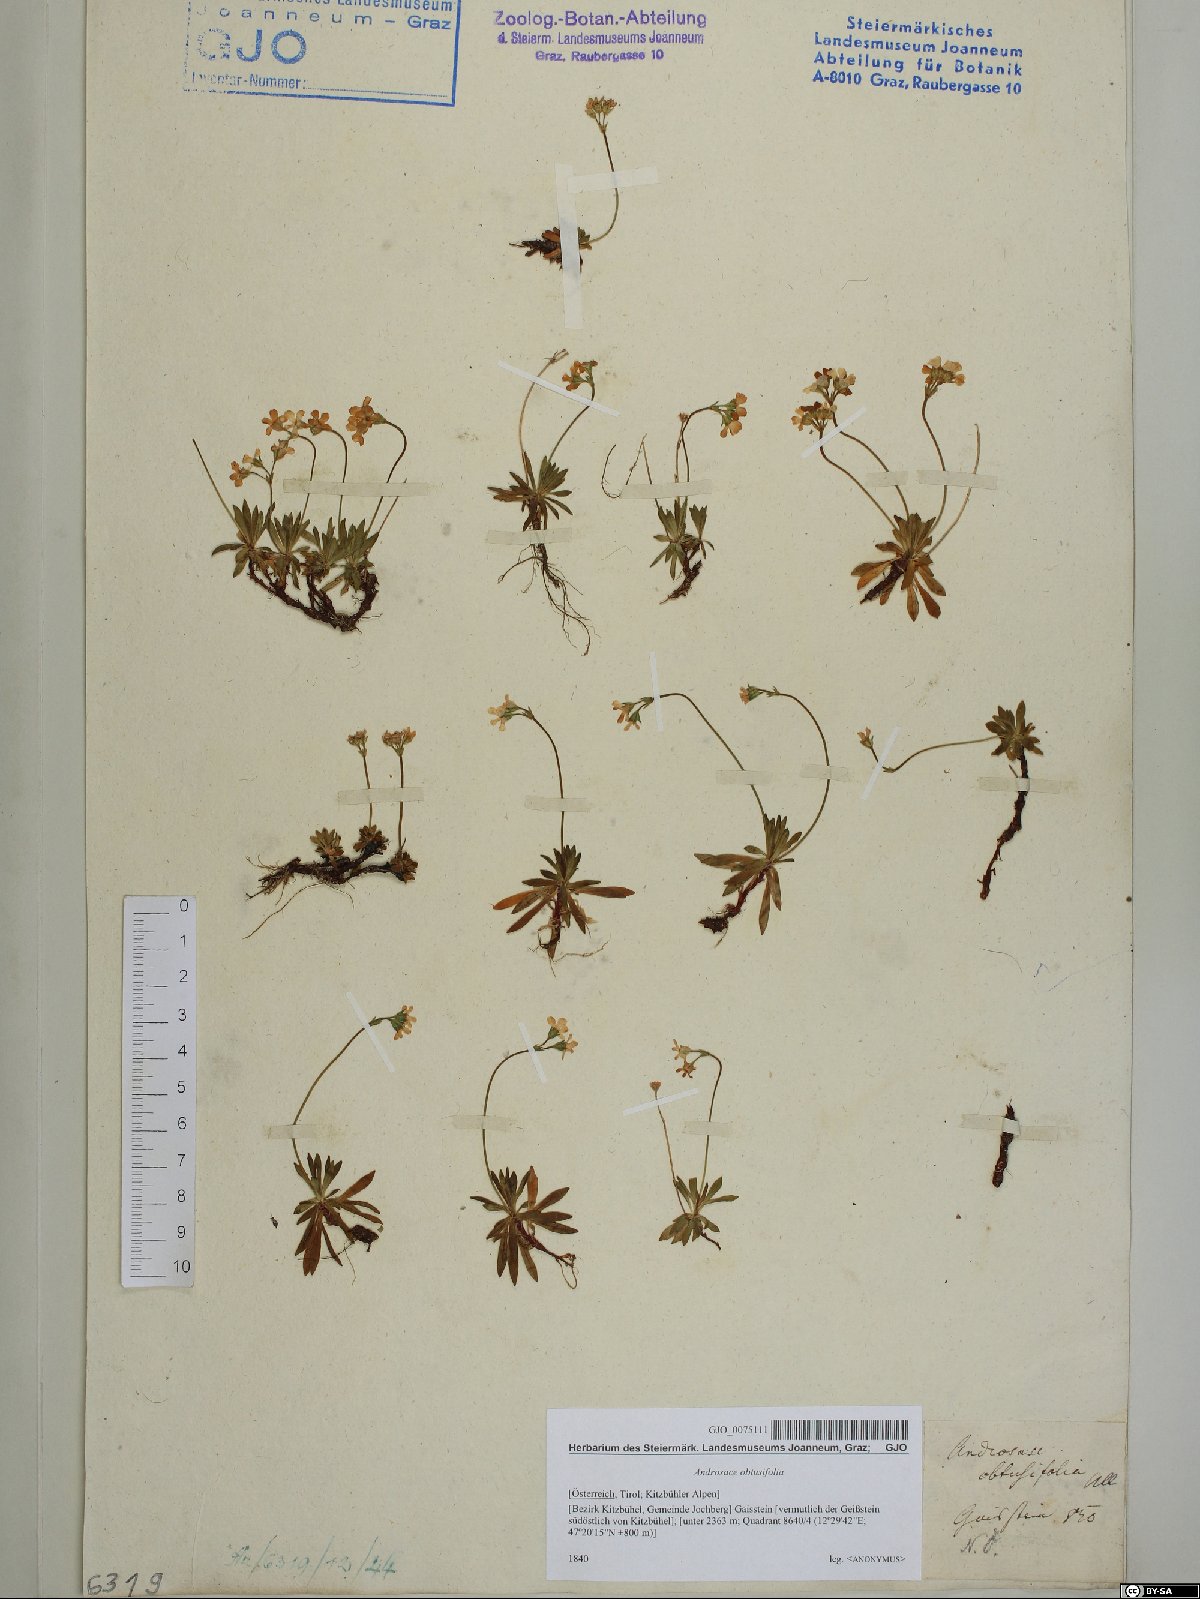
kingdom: Plantae
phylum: Tracheophyta
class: Magnoliopsida
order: Ericales
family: Primulaceae
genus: Androsace
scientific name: Androsace obtusifolia
